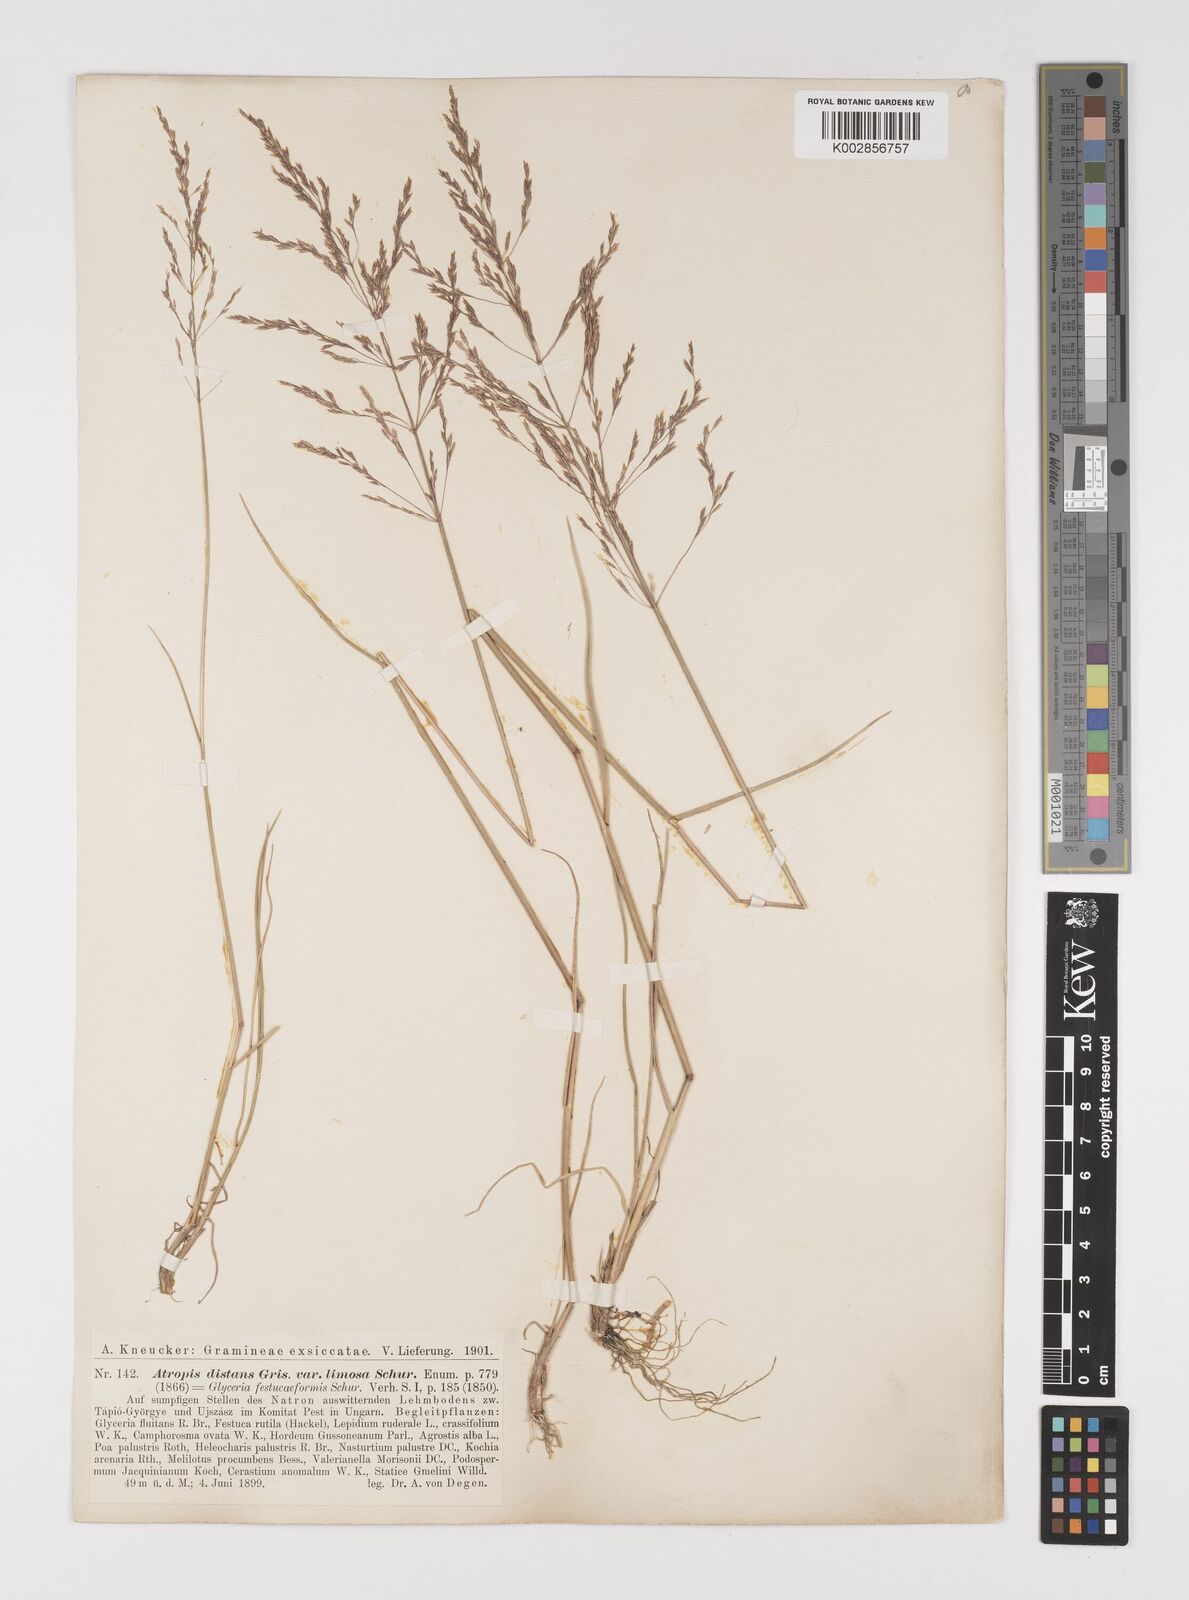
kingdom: Plantae
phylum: Tracheophyta
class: Liliopsida
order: Poales
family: Poaceae
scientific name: Poaceae
